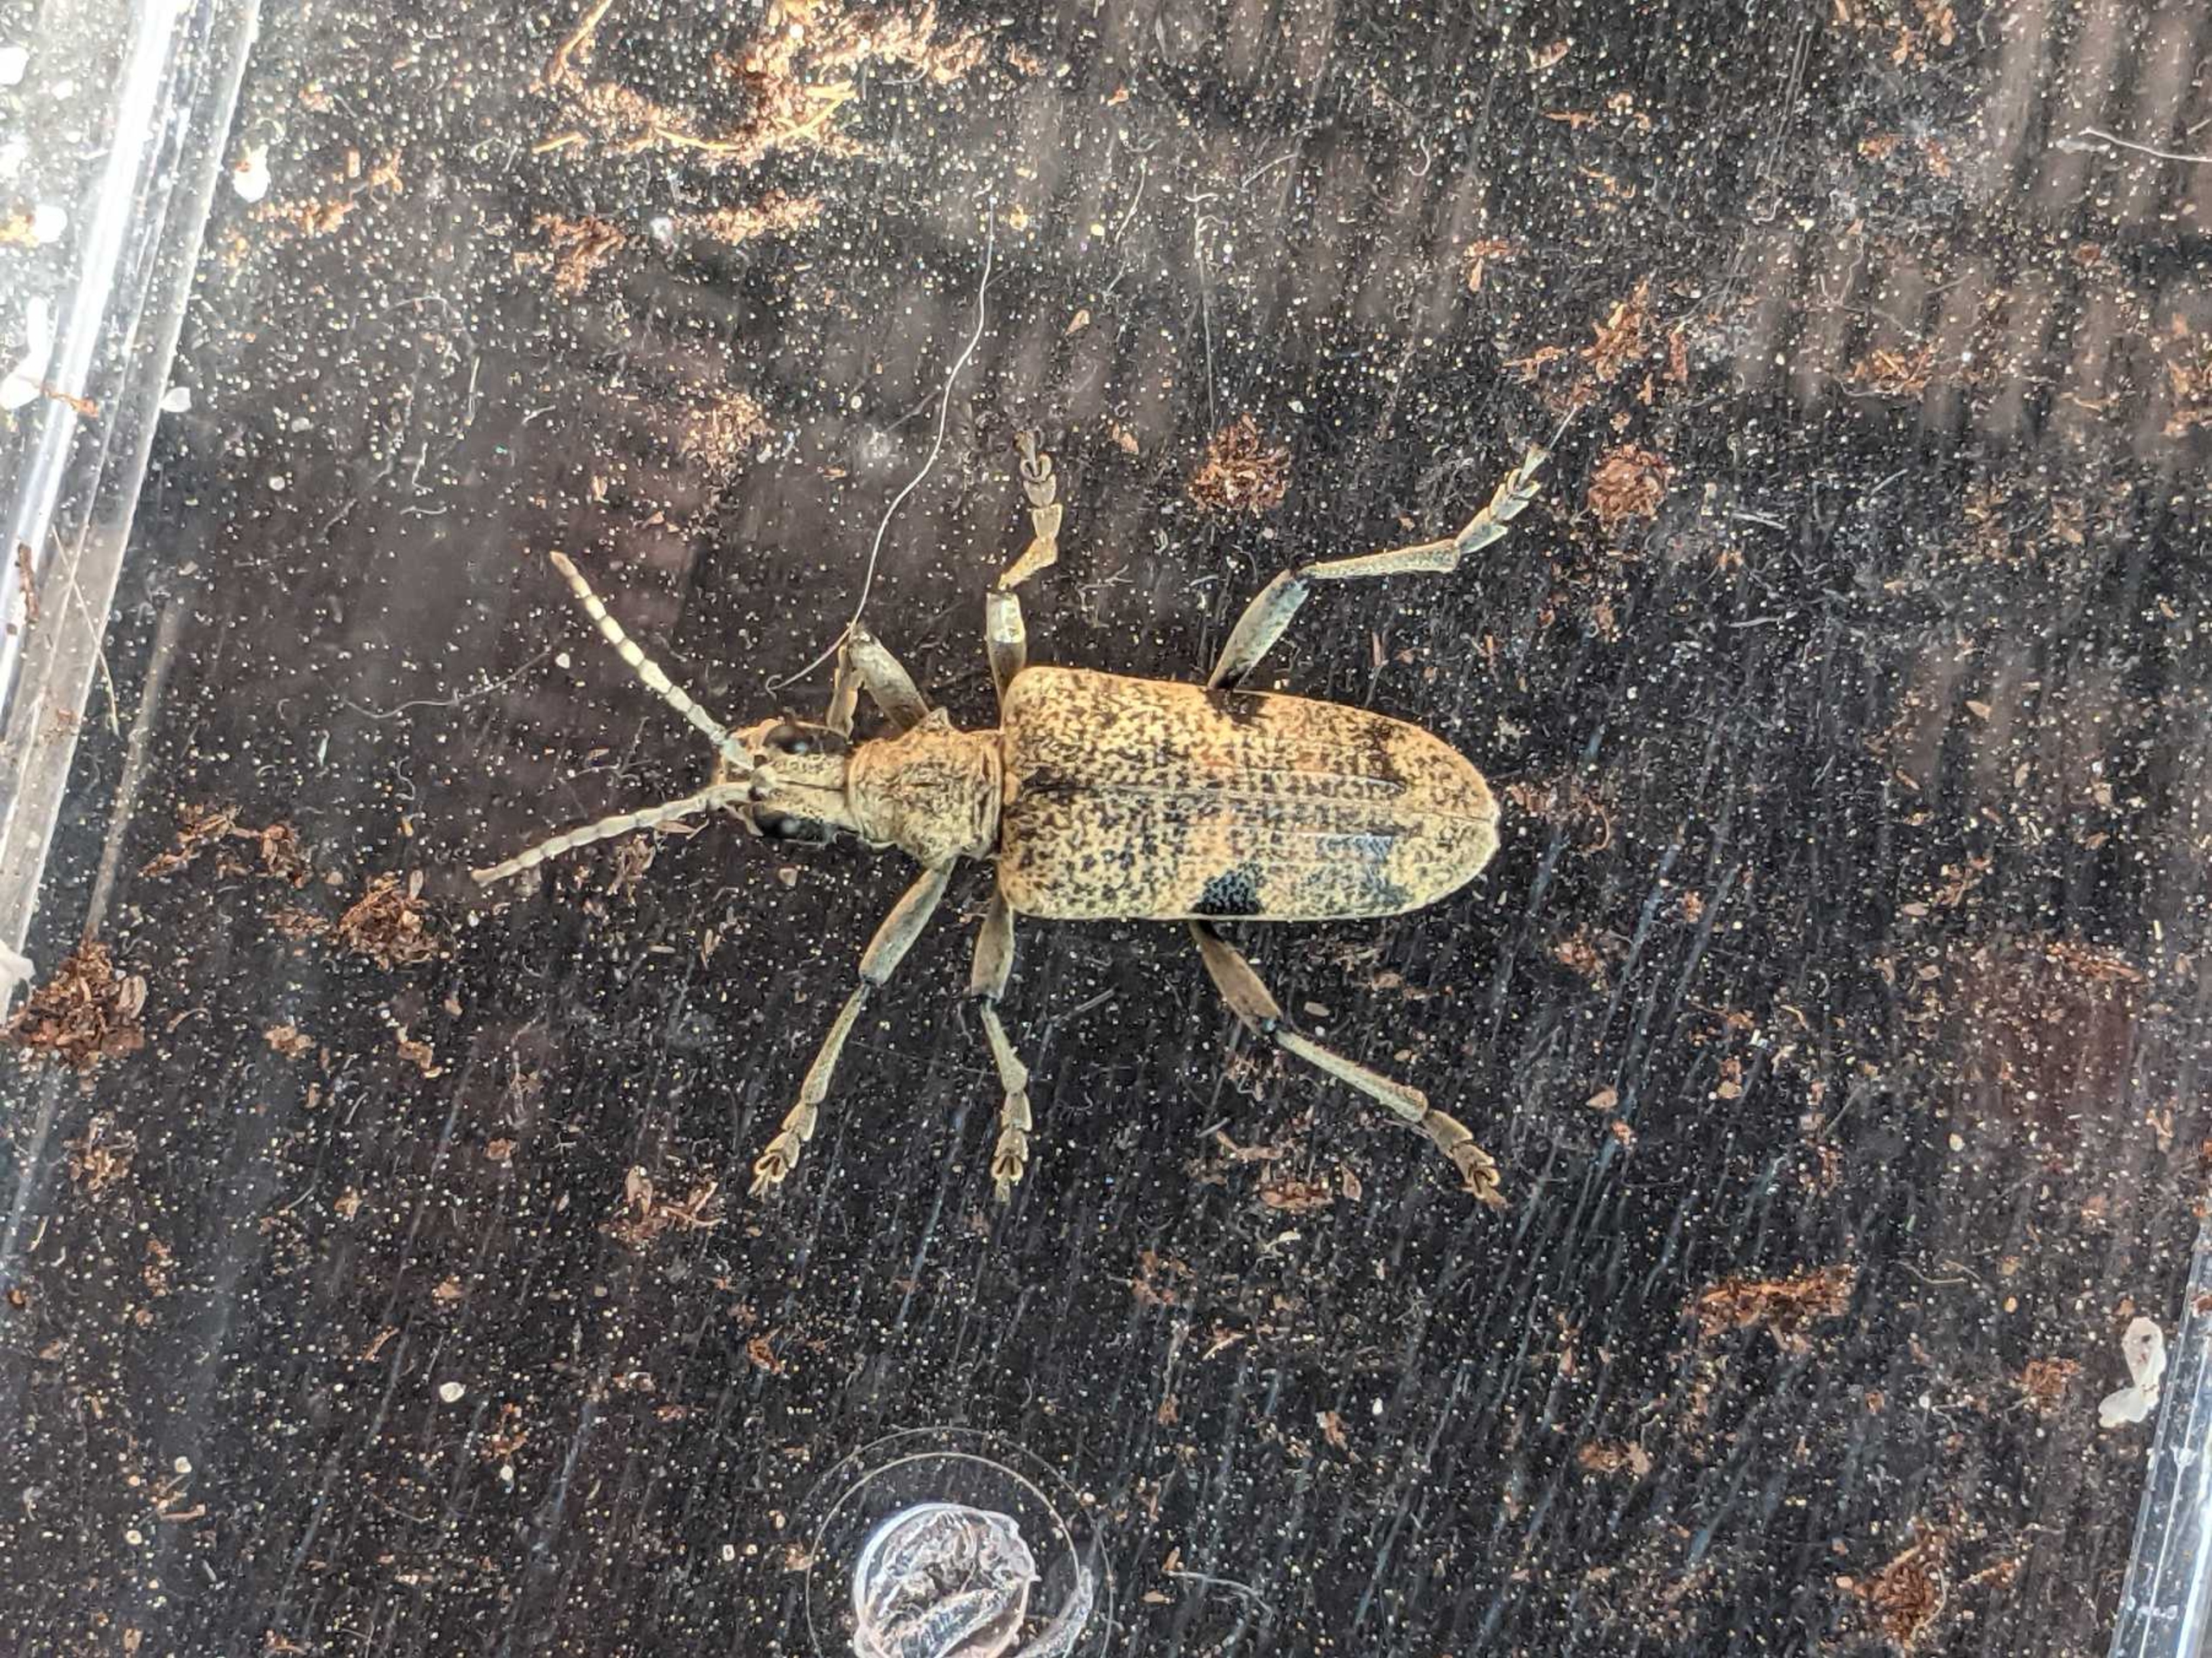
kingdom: Animalia
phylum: Arthropoda
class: Insecta
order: Coleoptera
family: Cerambycidae
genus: Rhagium
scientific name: Rhagium mordax
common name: Blankplettet tandbuk
